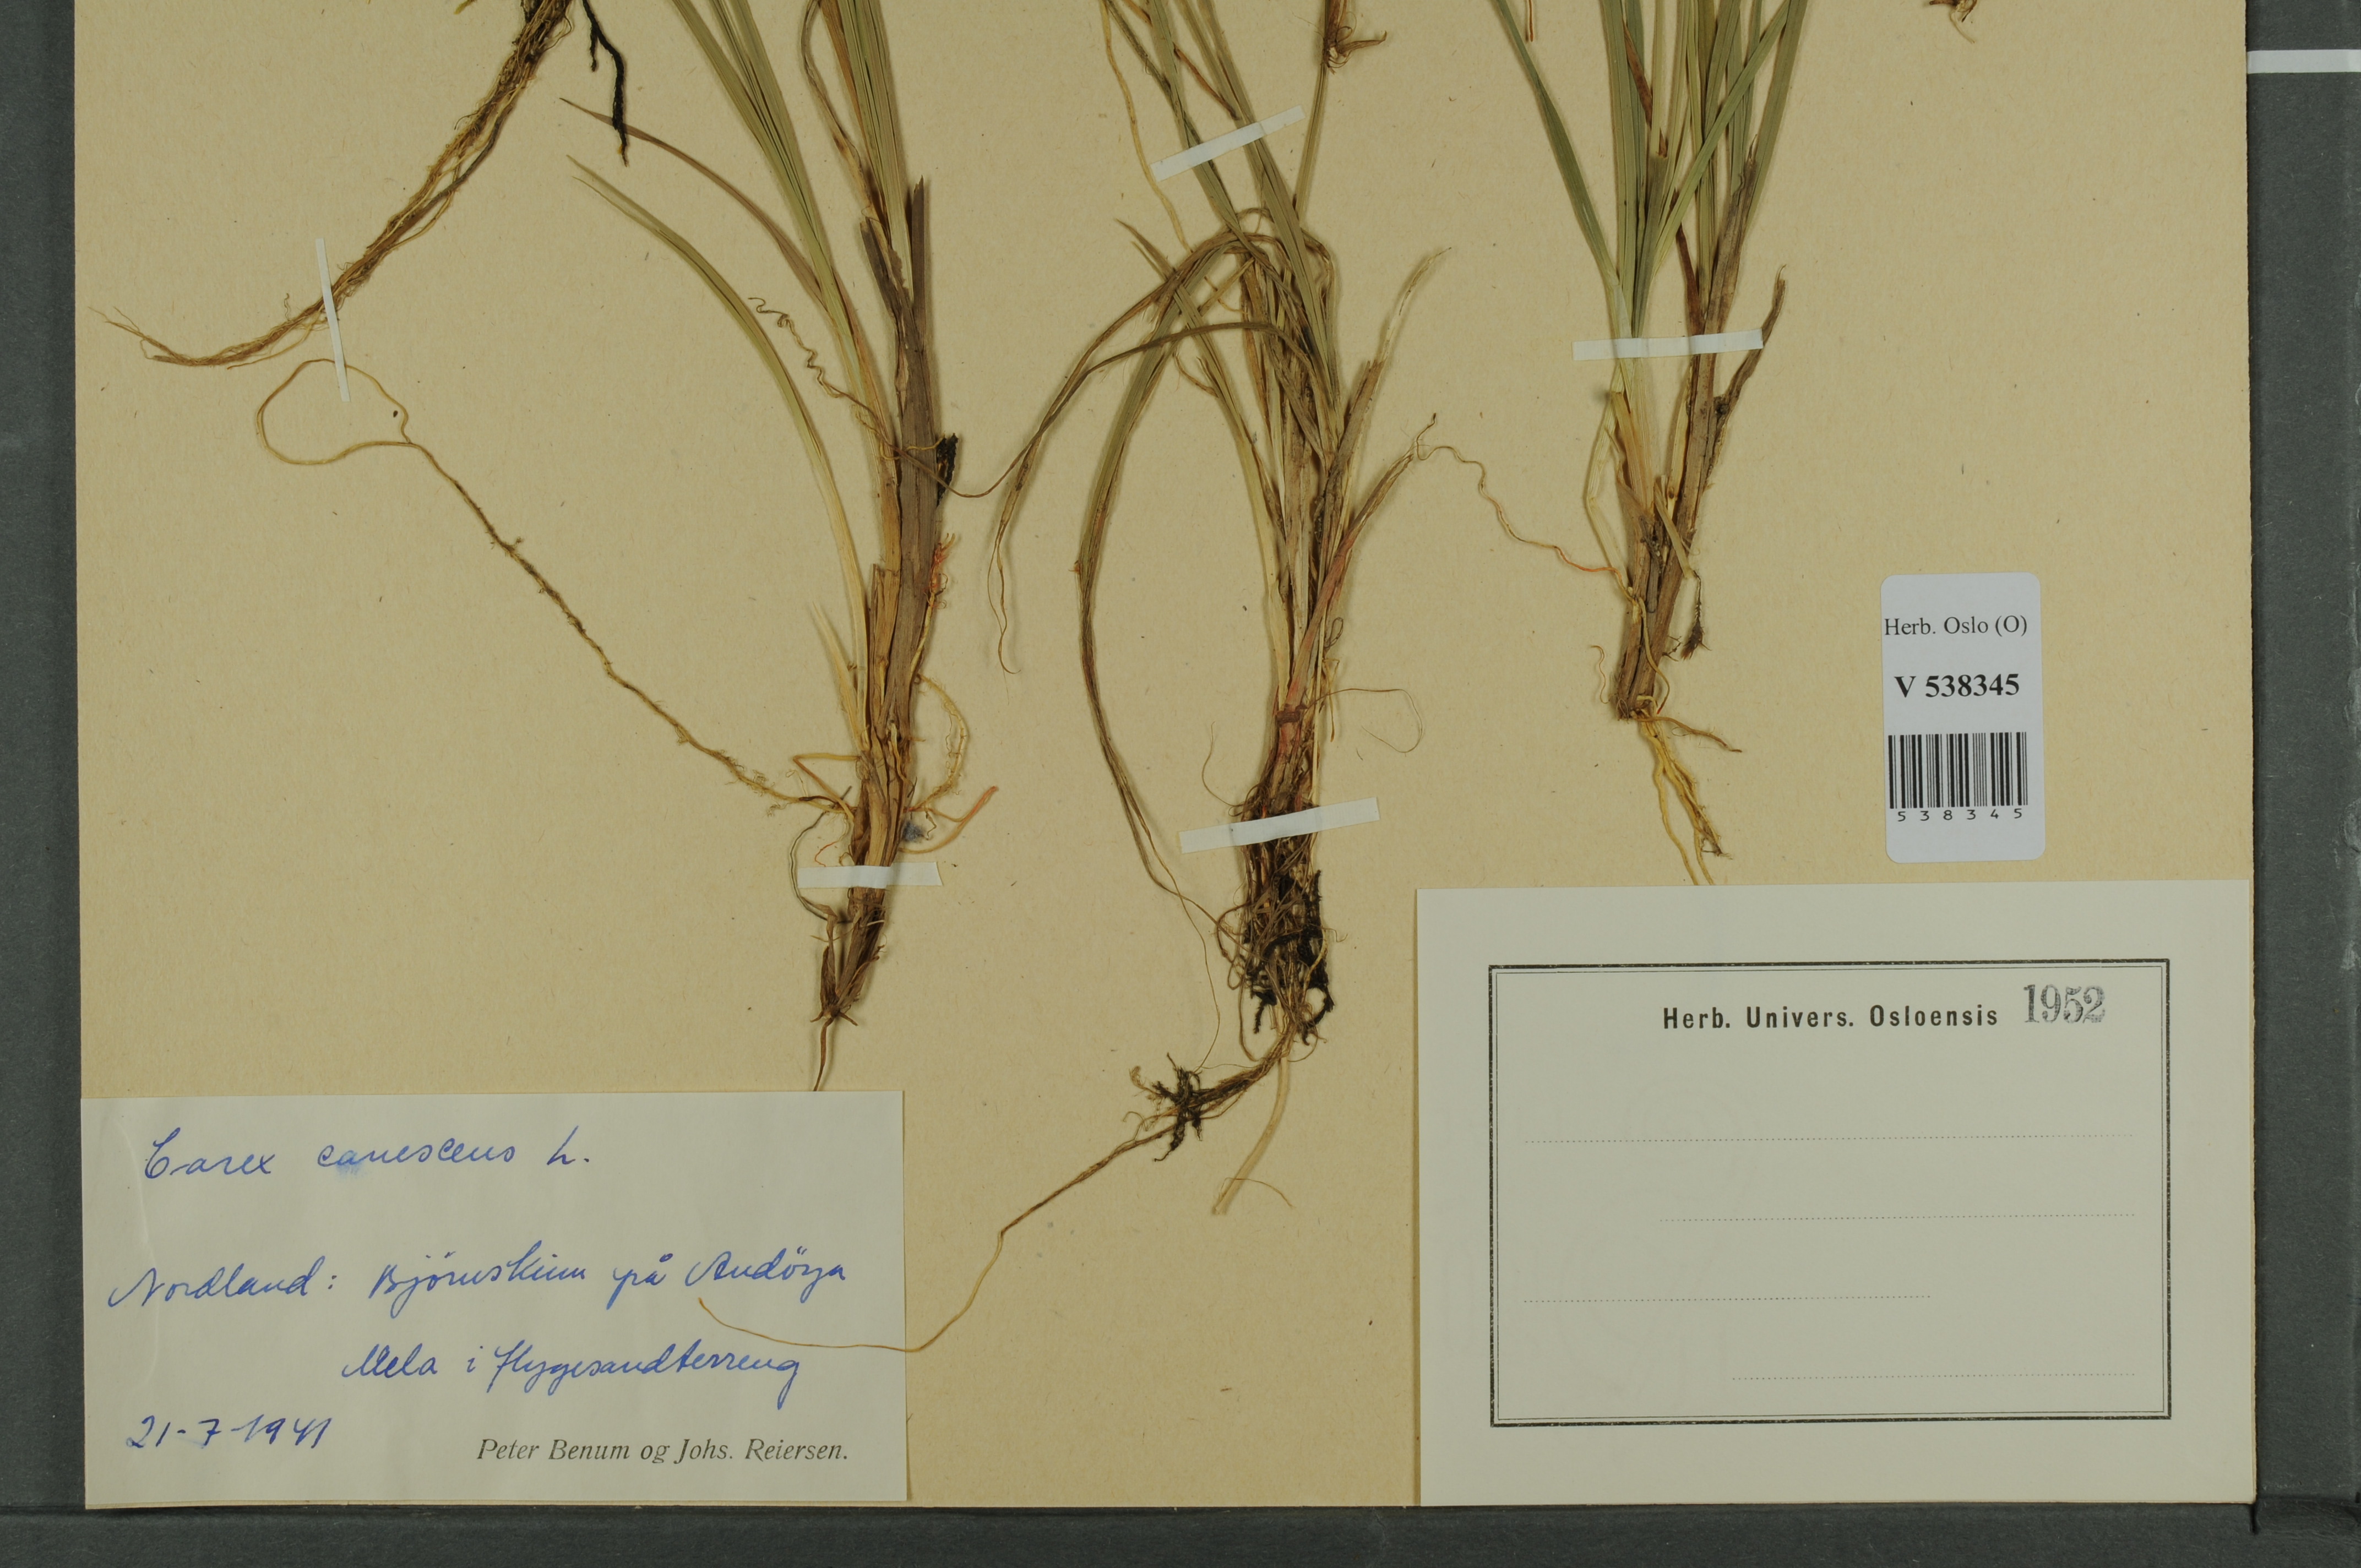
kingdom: Plantae
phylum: Tracheophyta
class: Liliopsida
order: Poales
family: Cyperaceae
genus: Carex
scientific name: Carex canescens
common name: White sedge
